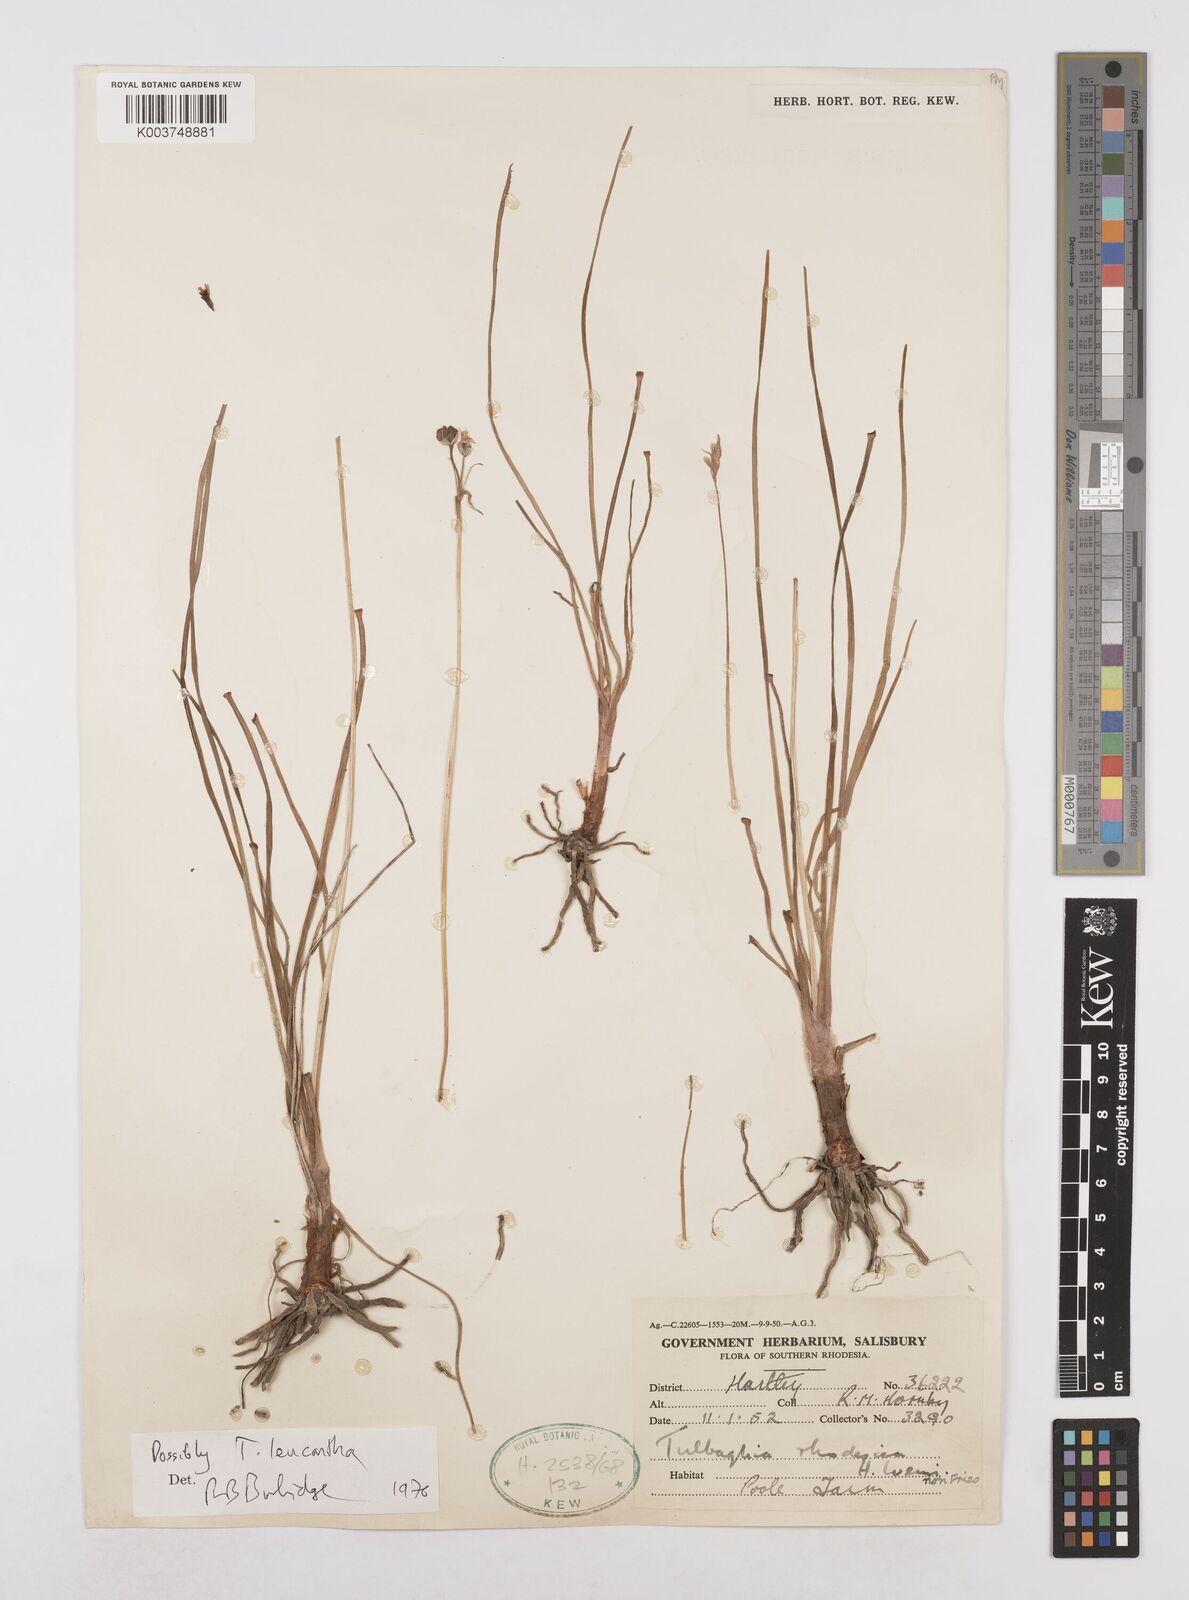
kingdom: Plantae
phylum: Tracheophyta
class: Liliopsida
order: Asparagales
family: Amaryllidaceae
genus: Tulbaghia
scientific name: Tulbaghia leucantha
